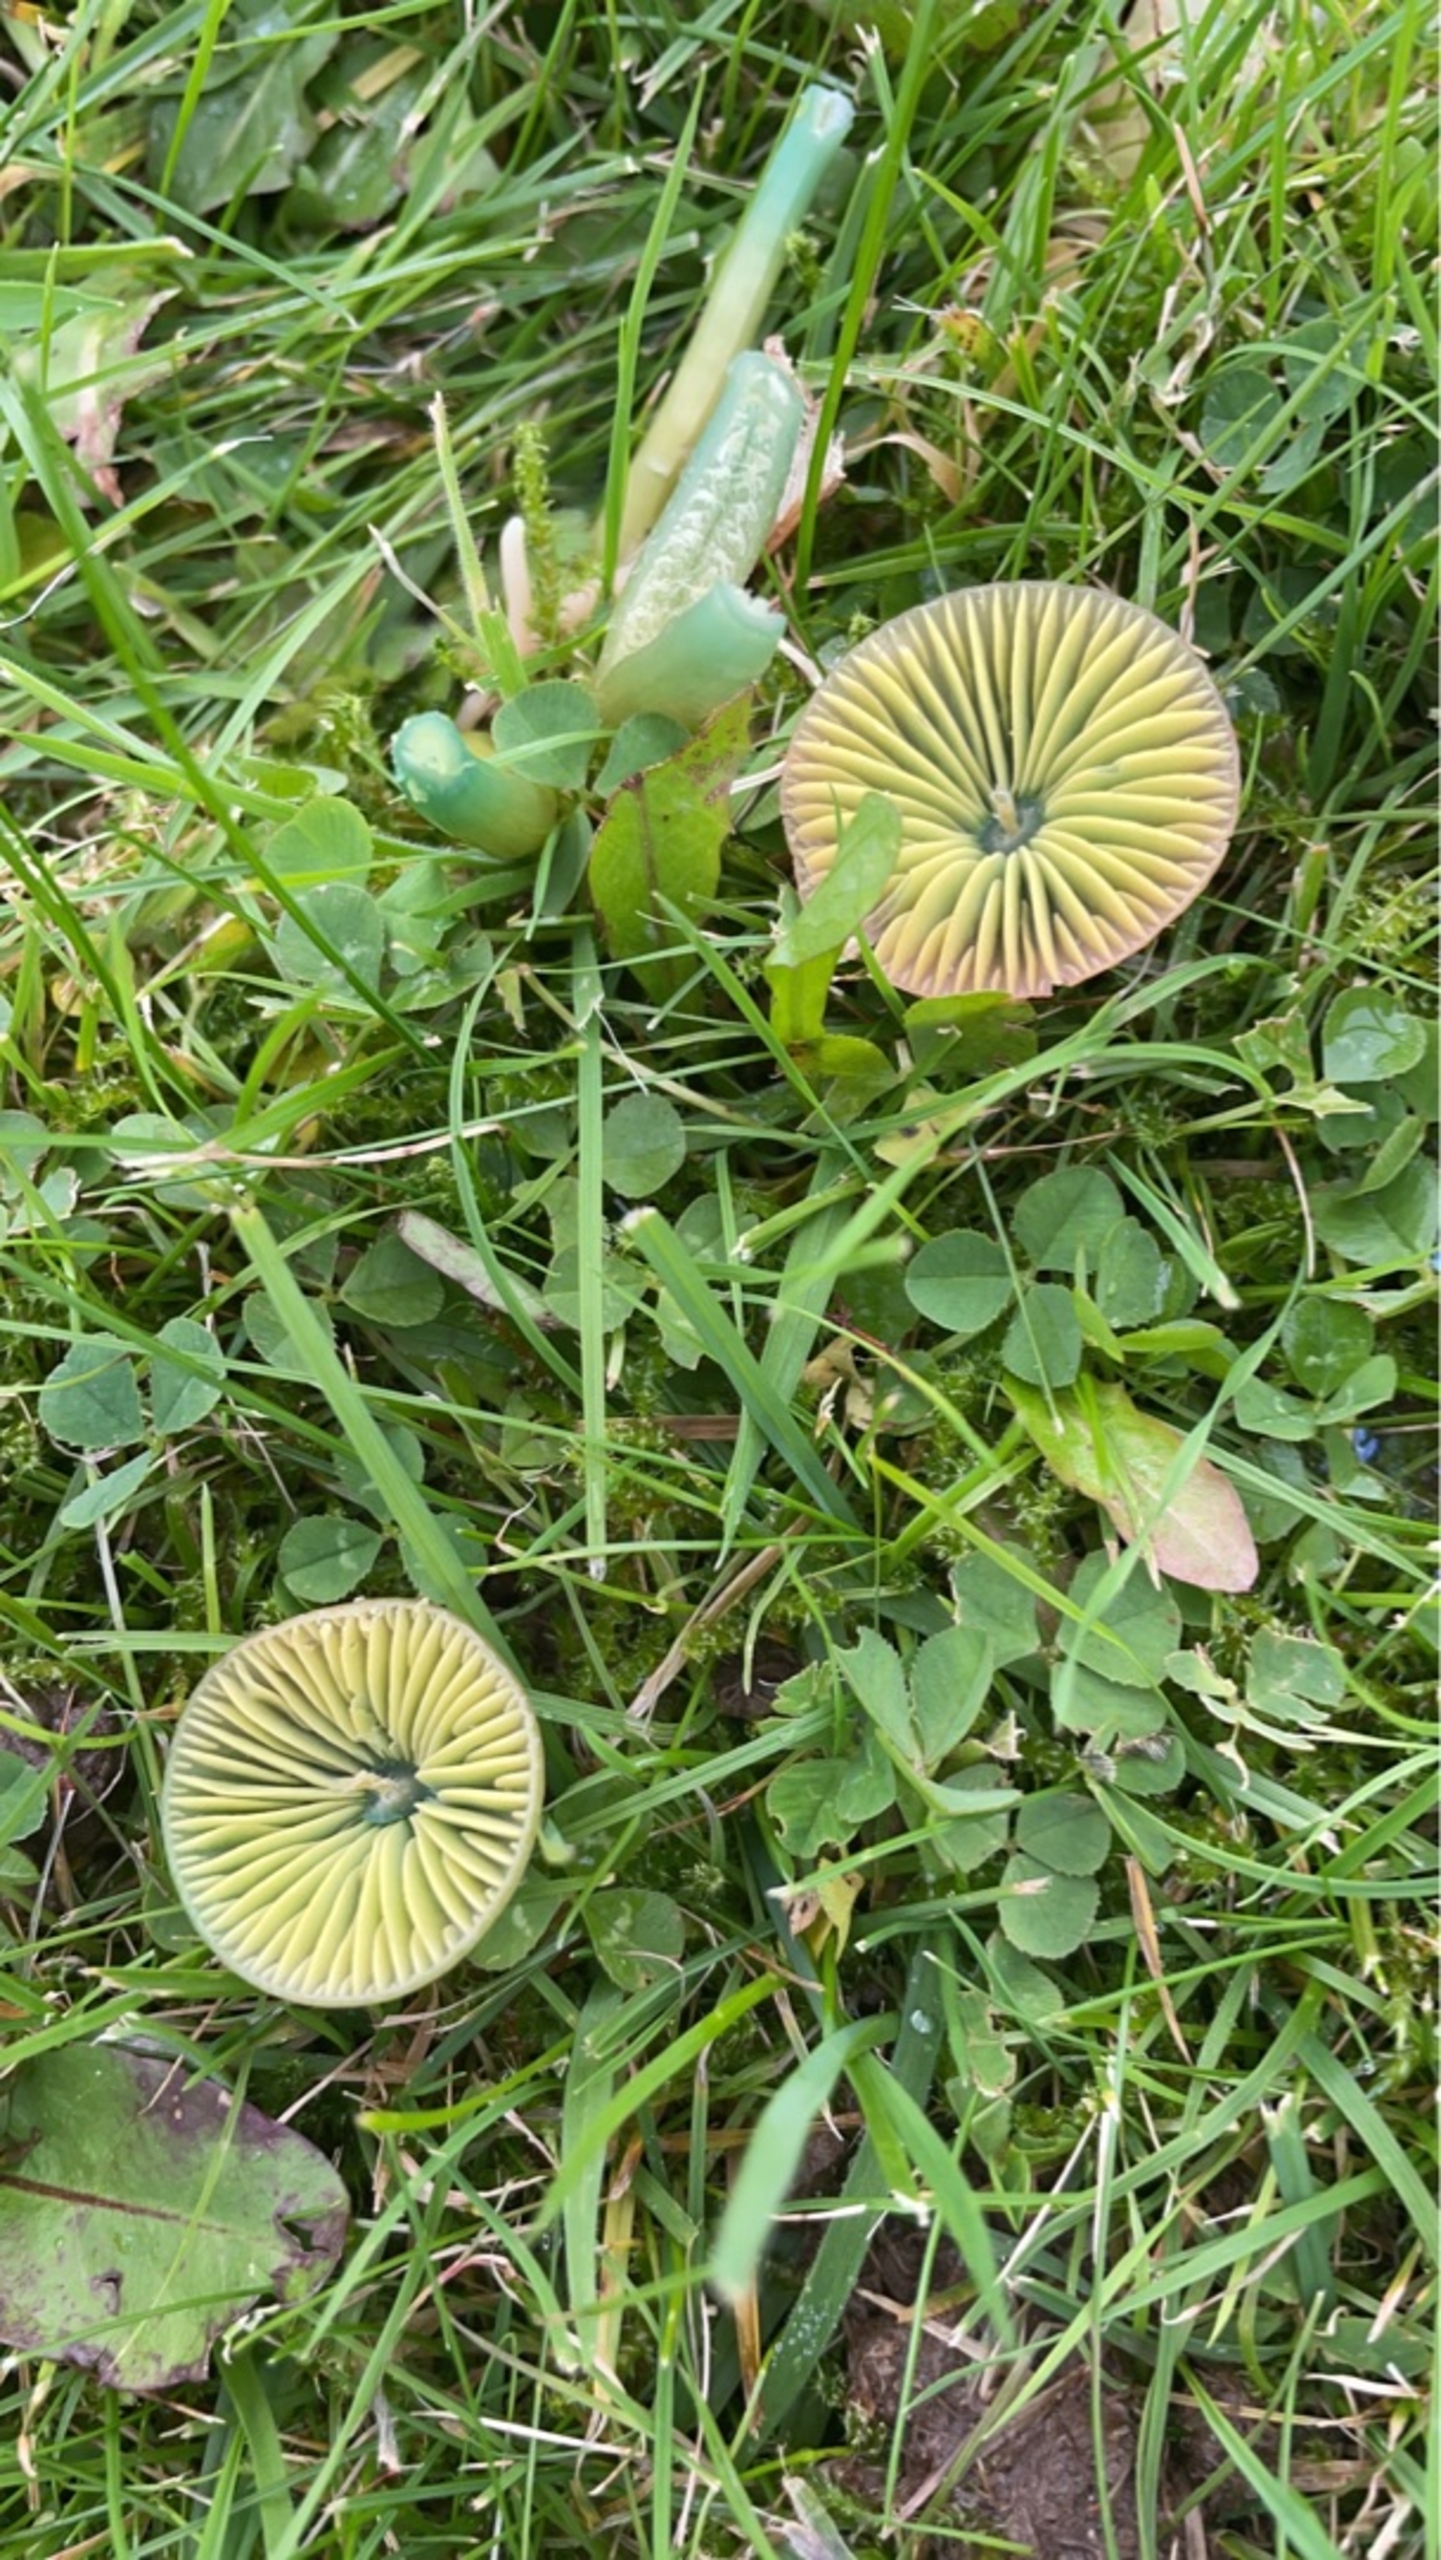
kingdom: Fungi
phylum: Basidiomycota
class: Agaricomycetes
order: Agaricales
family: Hygrophoraceae
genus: Gliophorus
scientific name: Gliophorus psittacinus
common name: Papegøje-vokshat
